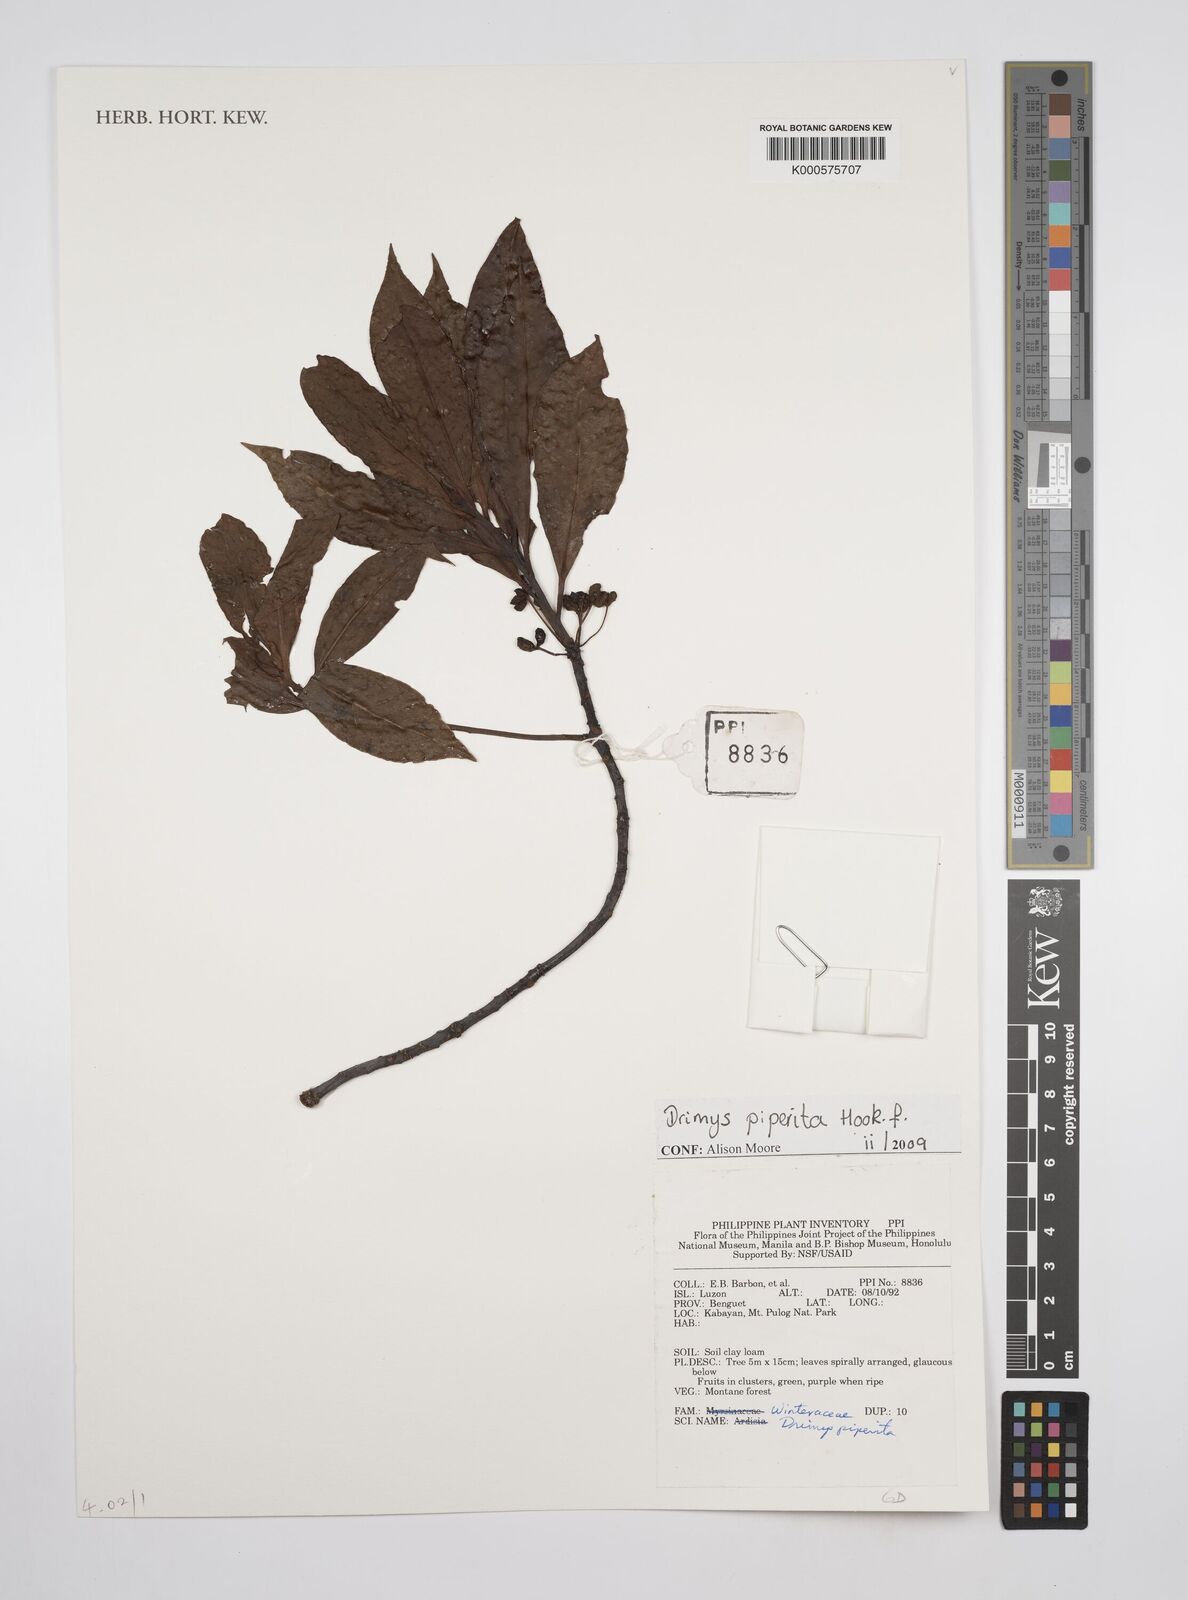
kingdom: Plantae
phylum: Tracheophyta
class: Magnoliopsida
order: Canellales
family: Winteraceae
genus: Drimys
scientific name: Drimys piperita
